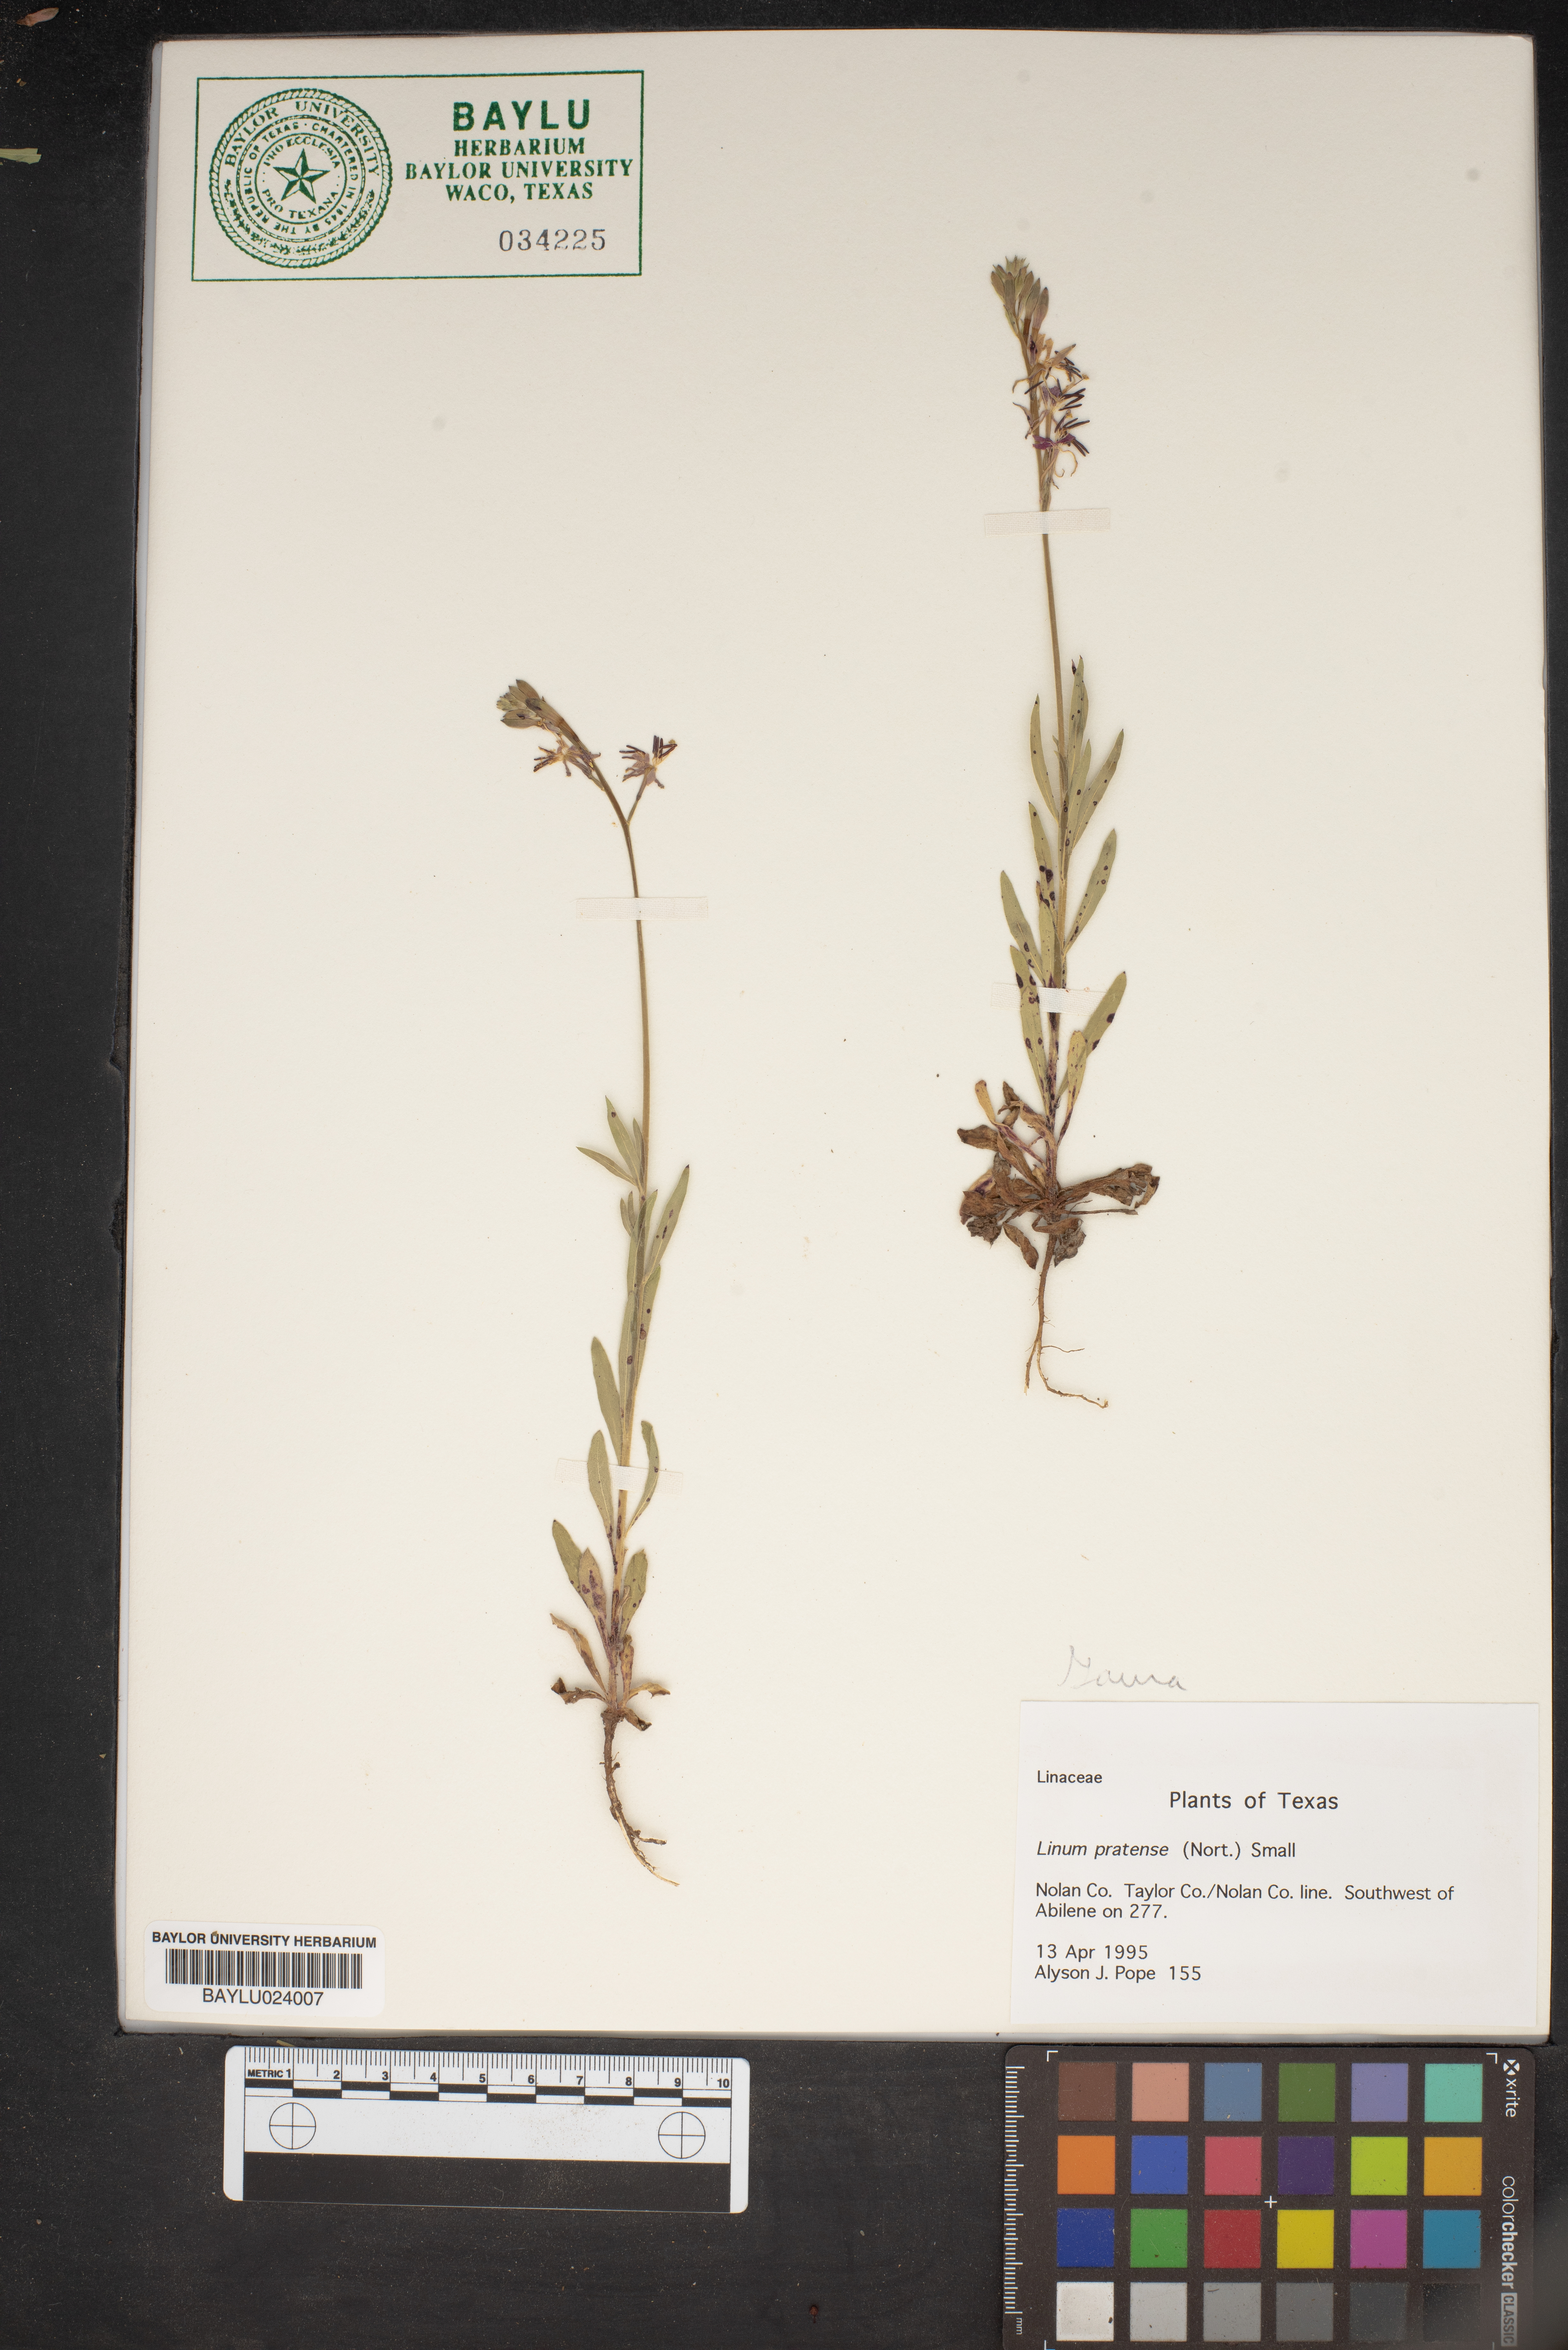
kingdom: Plantae
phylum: Tracheophyta
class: Magnoliopsida
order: Malpighiales
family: Linaceae
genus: Linum
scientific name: Linum pratense
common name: Norton's flax
